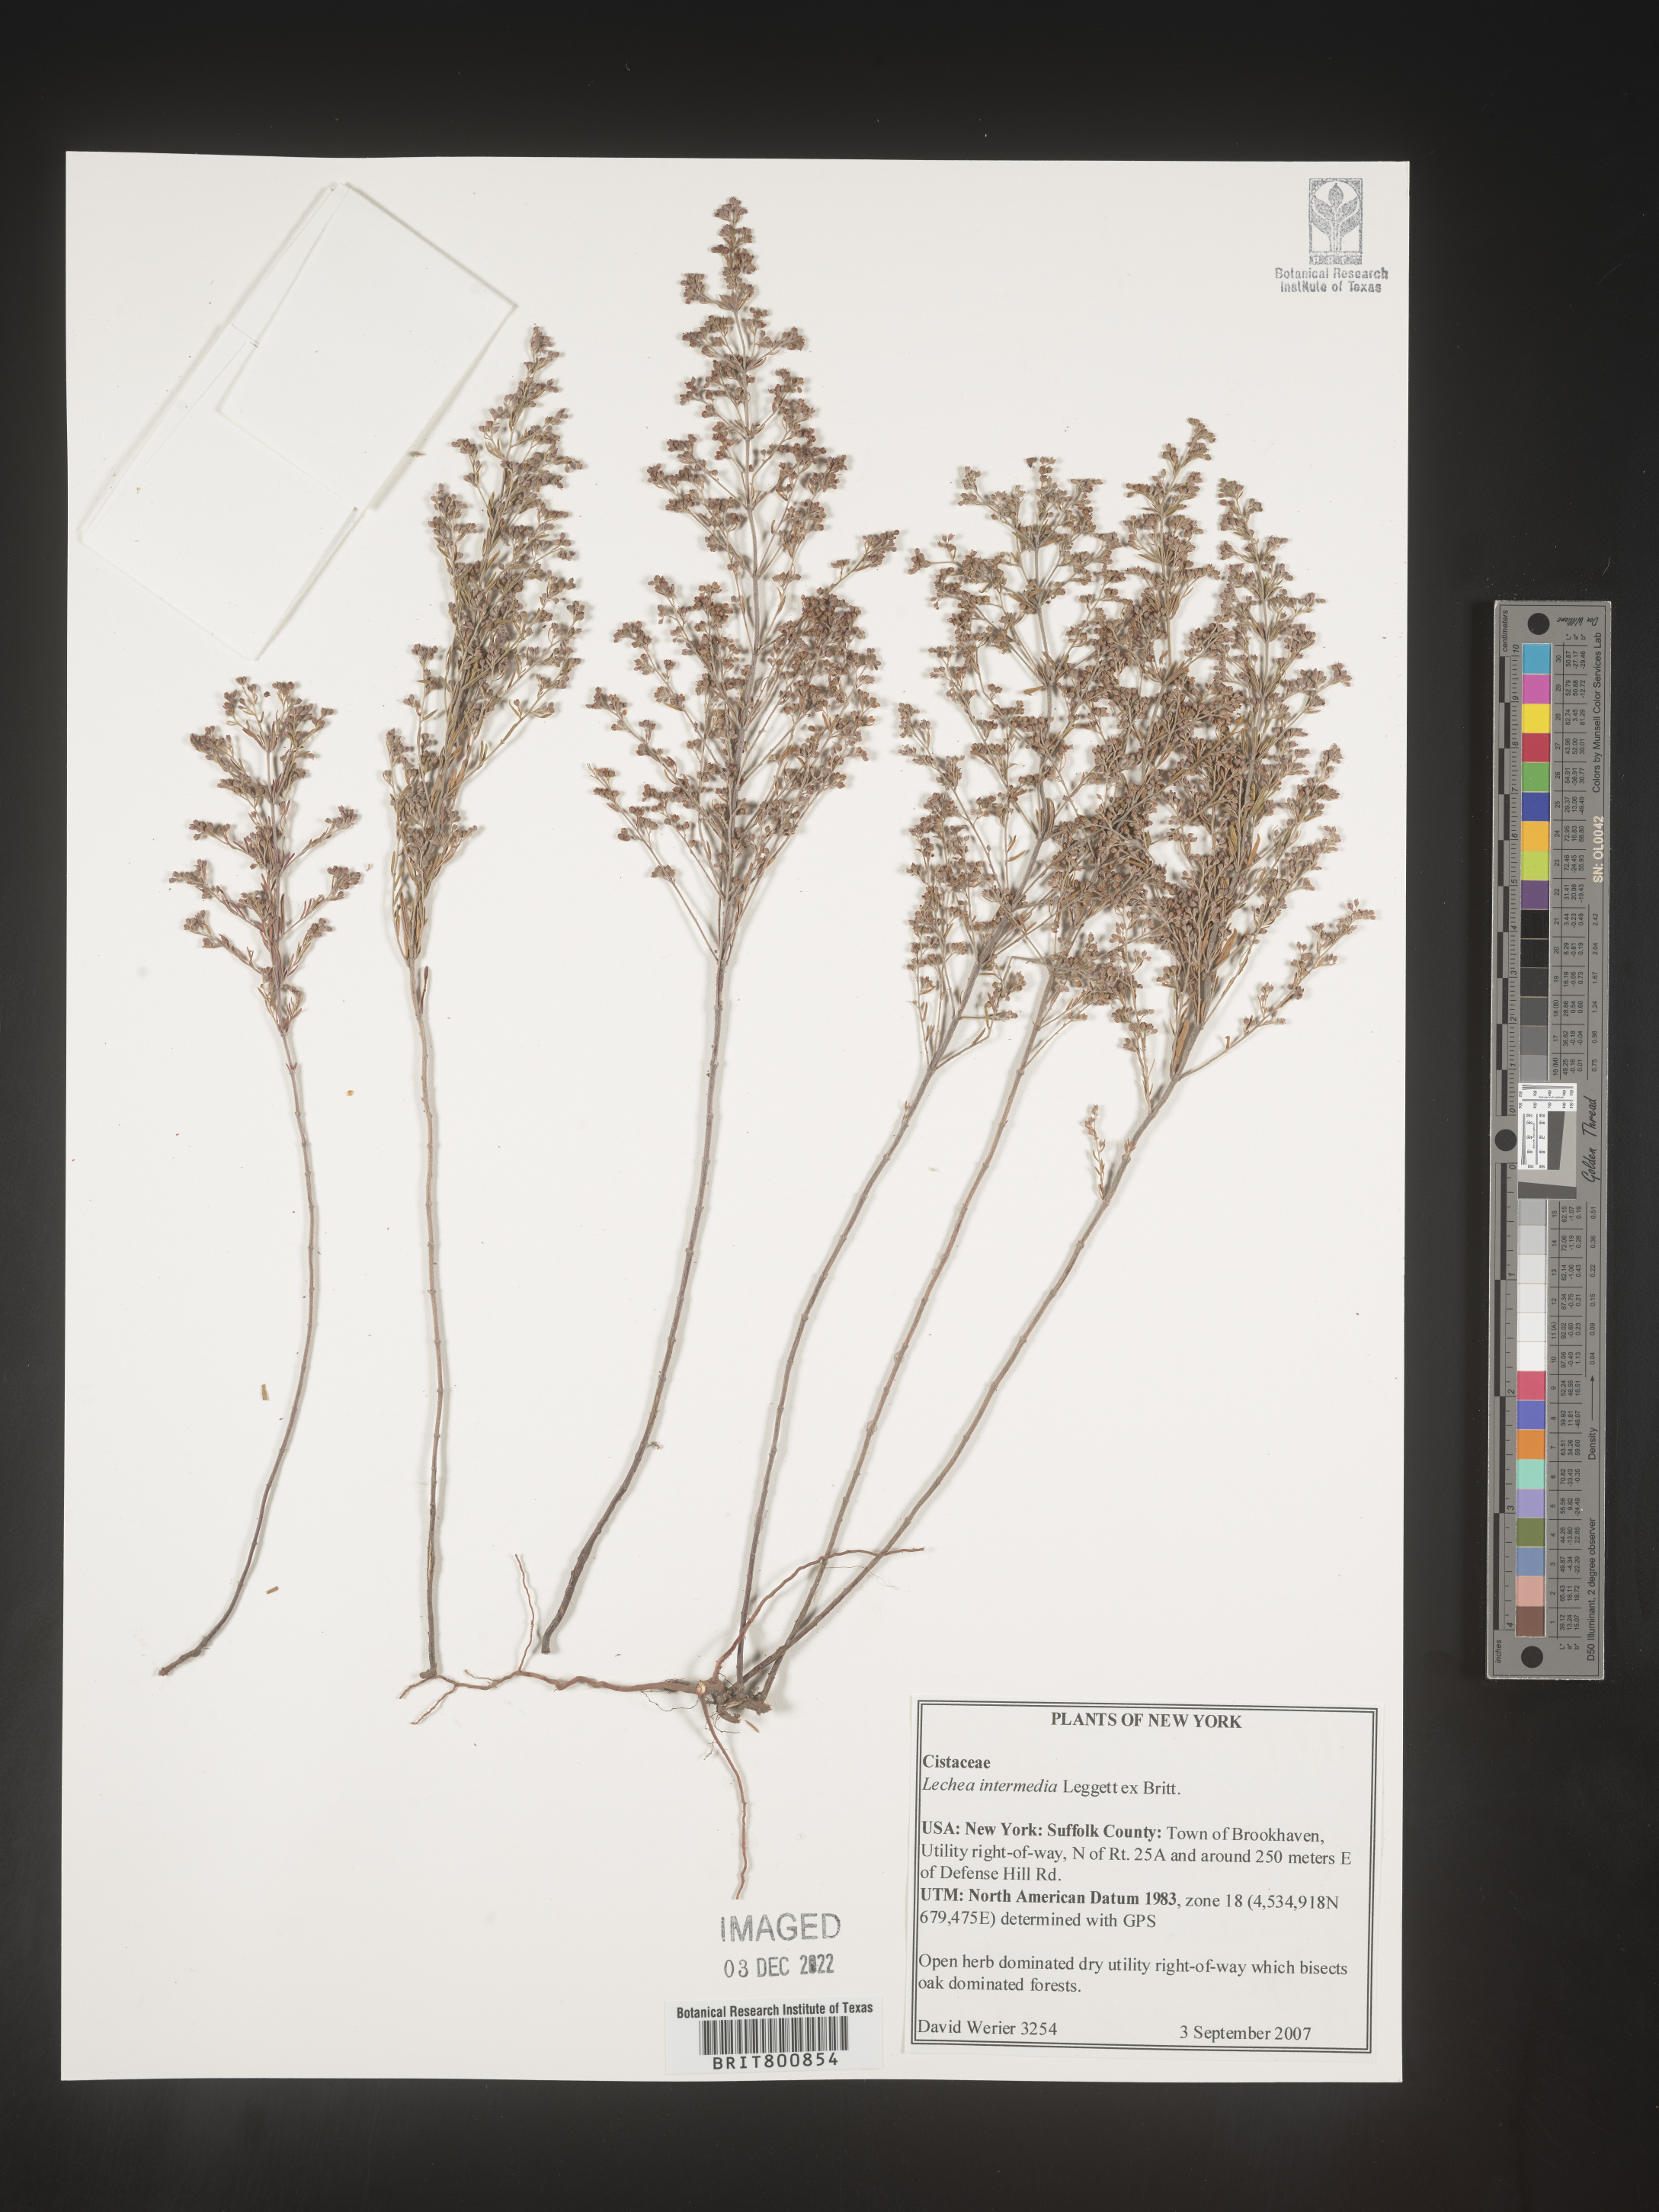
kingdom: Plantae
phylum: Tracheophyta
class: Magnoliopsida
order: Malvales
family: Cistaceae
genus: Lechea
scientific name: Lechea intermedia
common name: Intermediate pinweed
